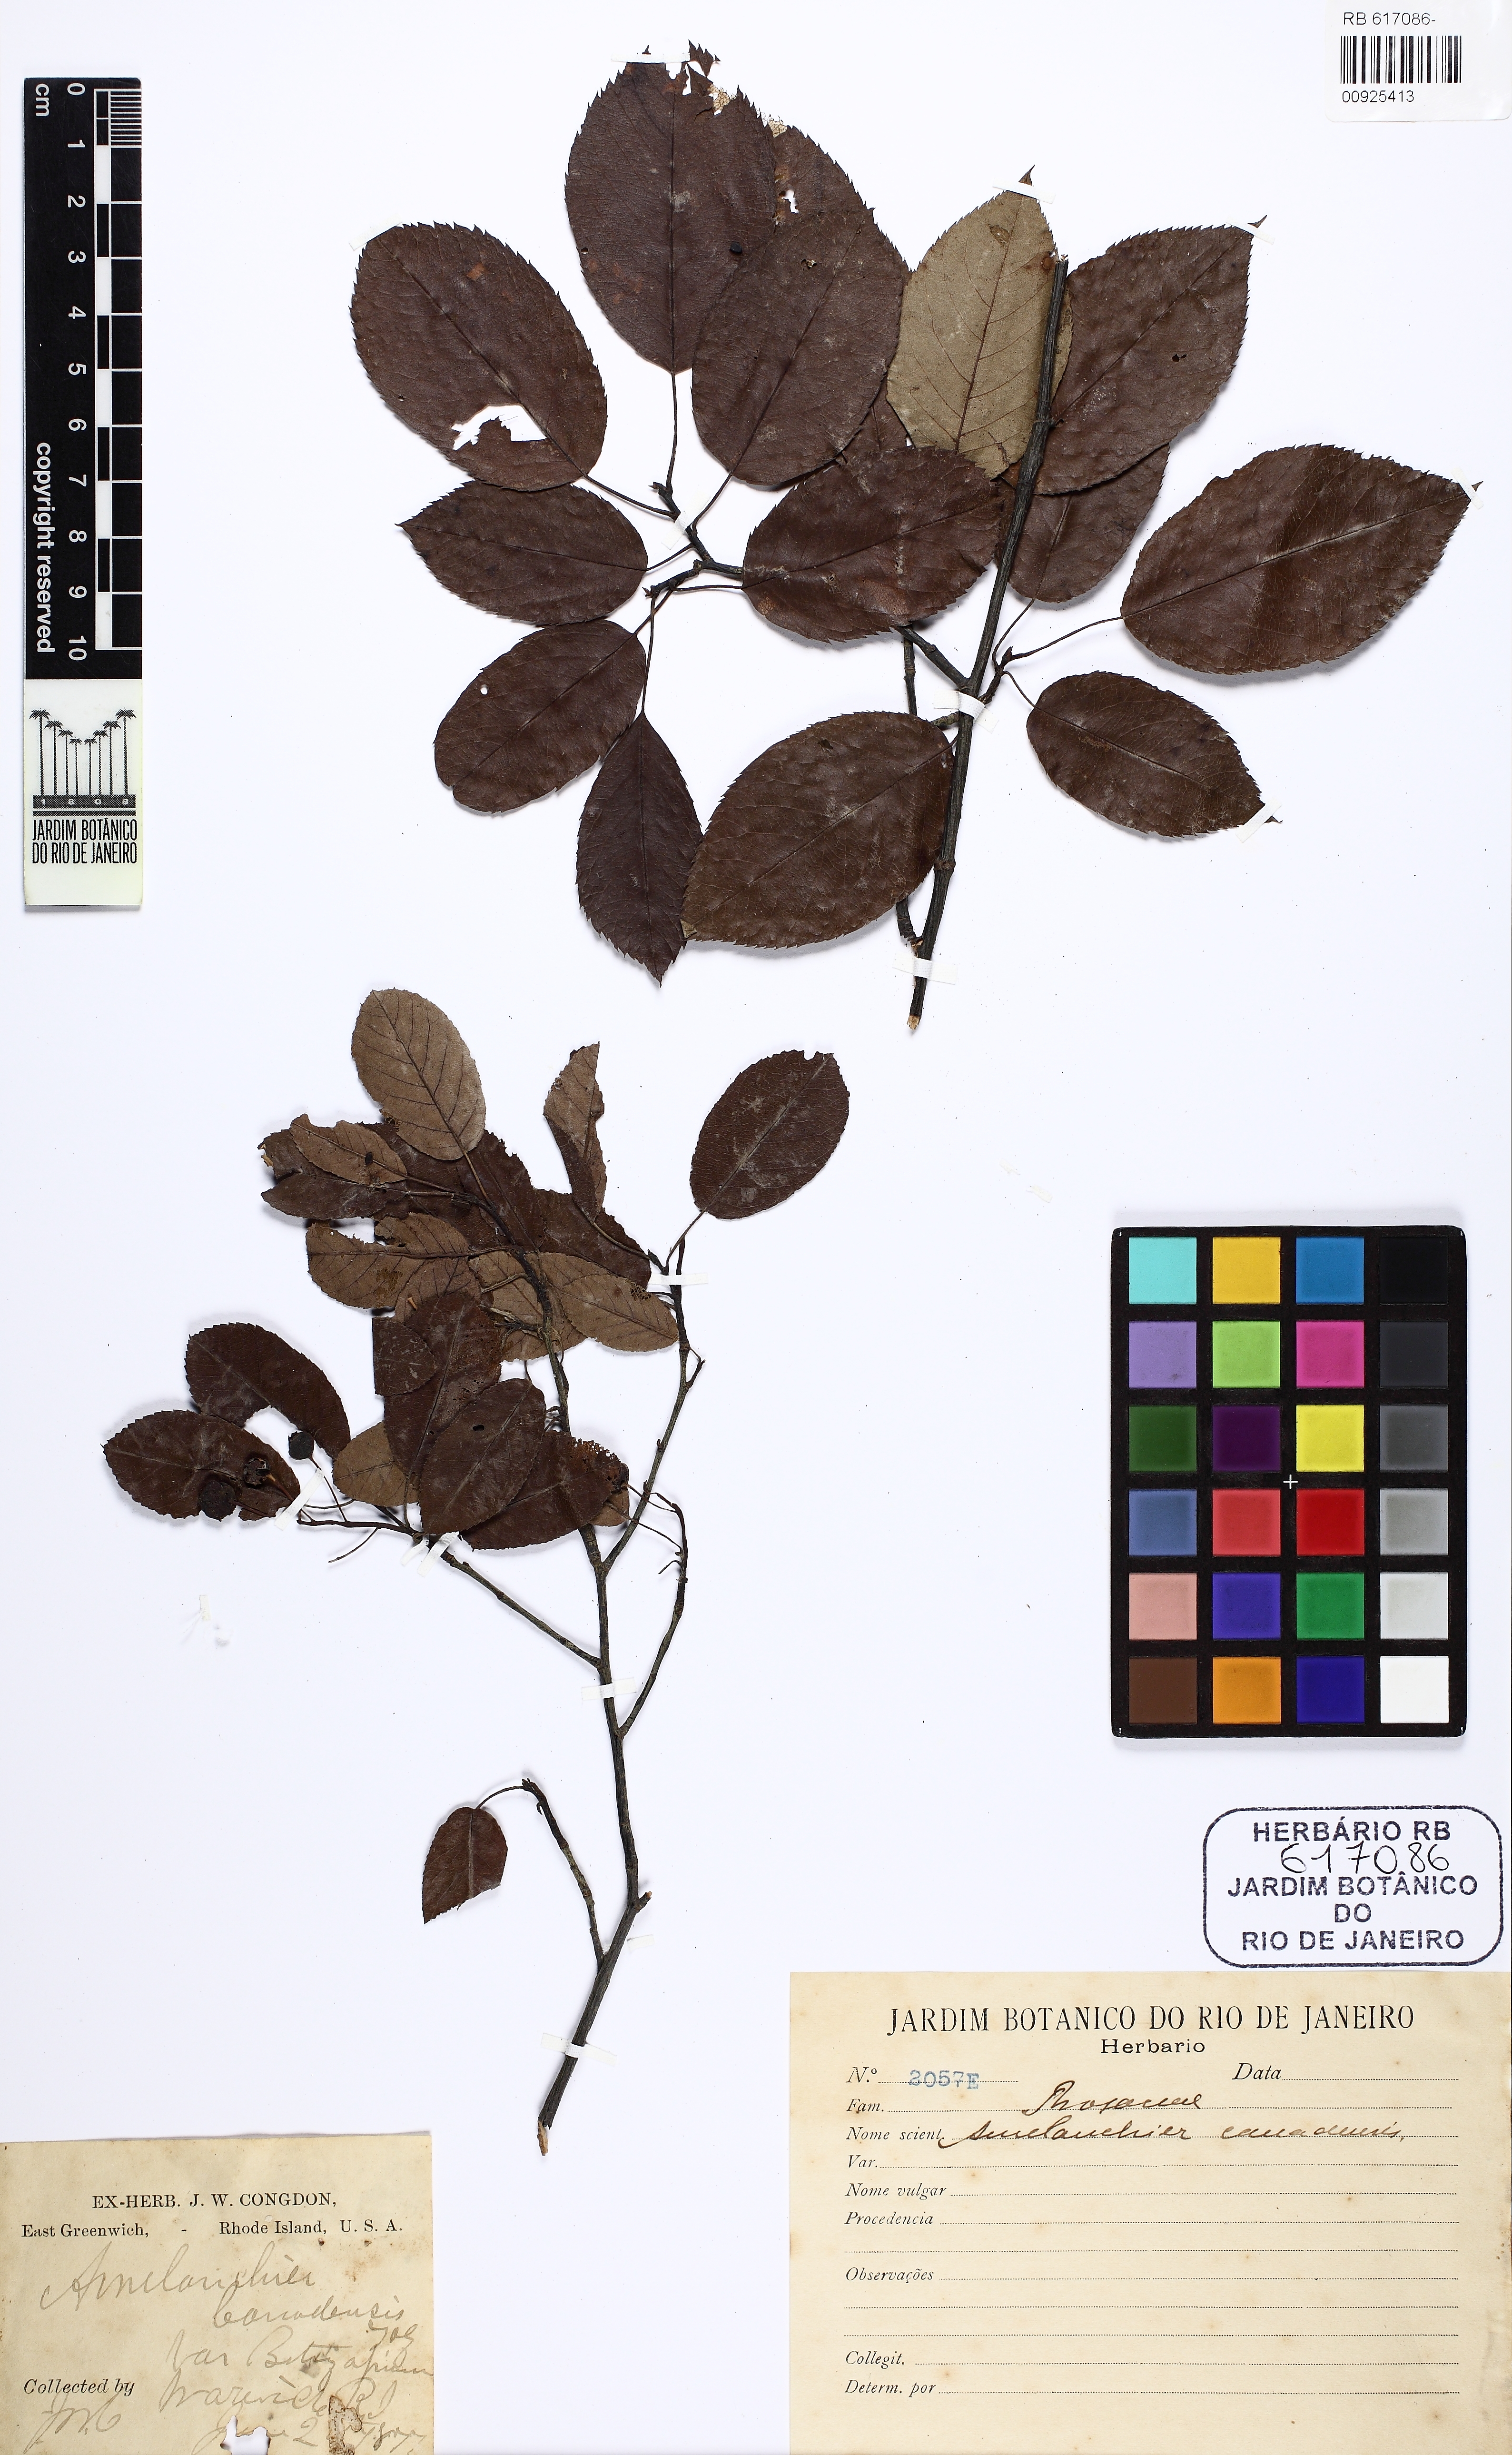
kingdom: Plantae
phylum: Tracheophyta
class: Magnoliopsida
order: Rosales
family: Rosaceae
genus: Amelanchier
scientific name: Amelanchier canadensis
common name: Thicket serviceberry
